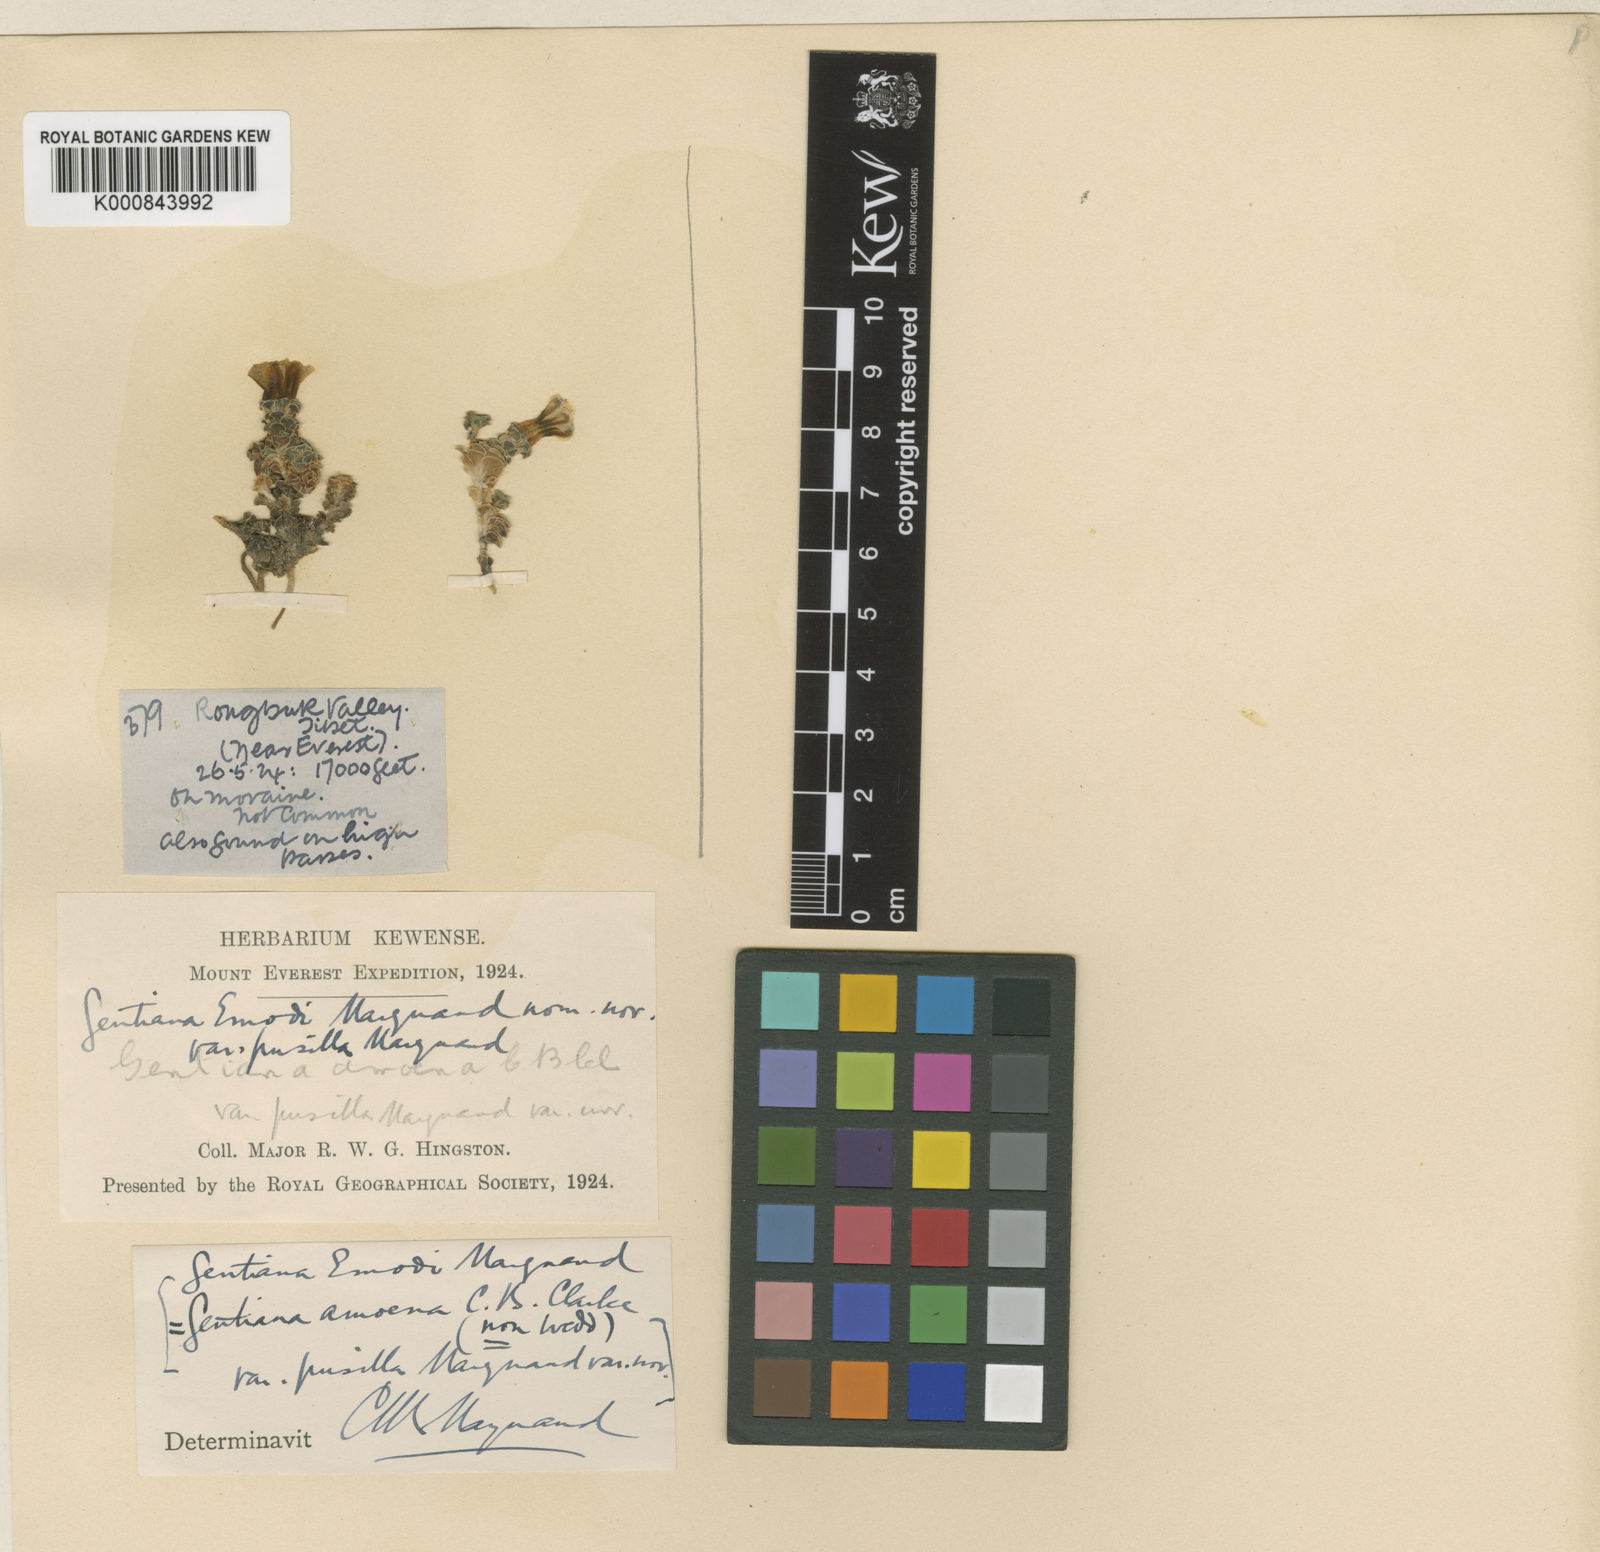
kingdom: Plantae
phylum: Tracheophyta
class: Magnoliopsida
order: Gentianales
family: Gentianaceae
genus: Gentiana
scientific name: Gentiana urnula
